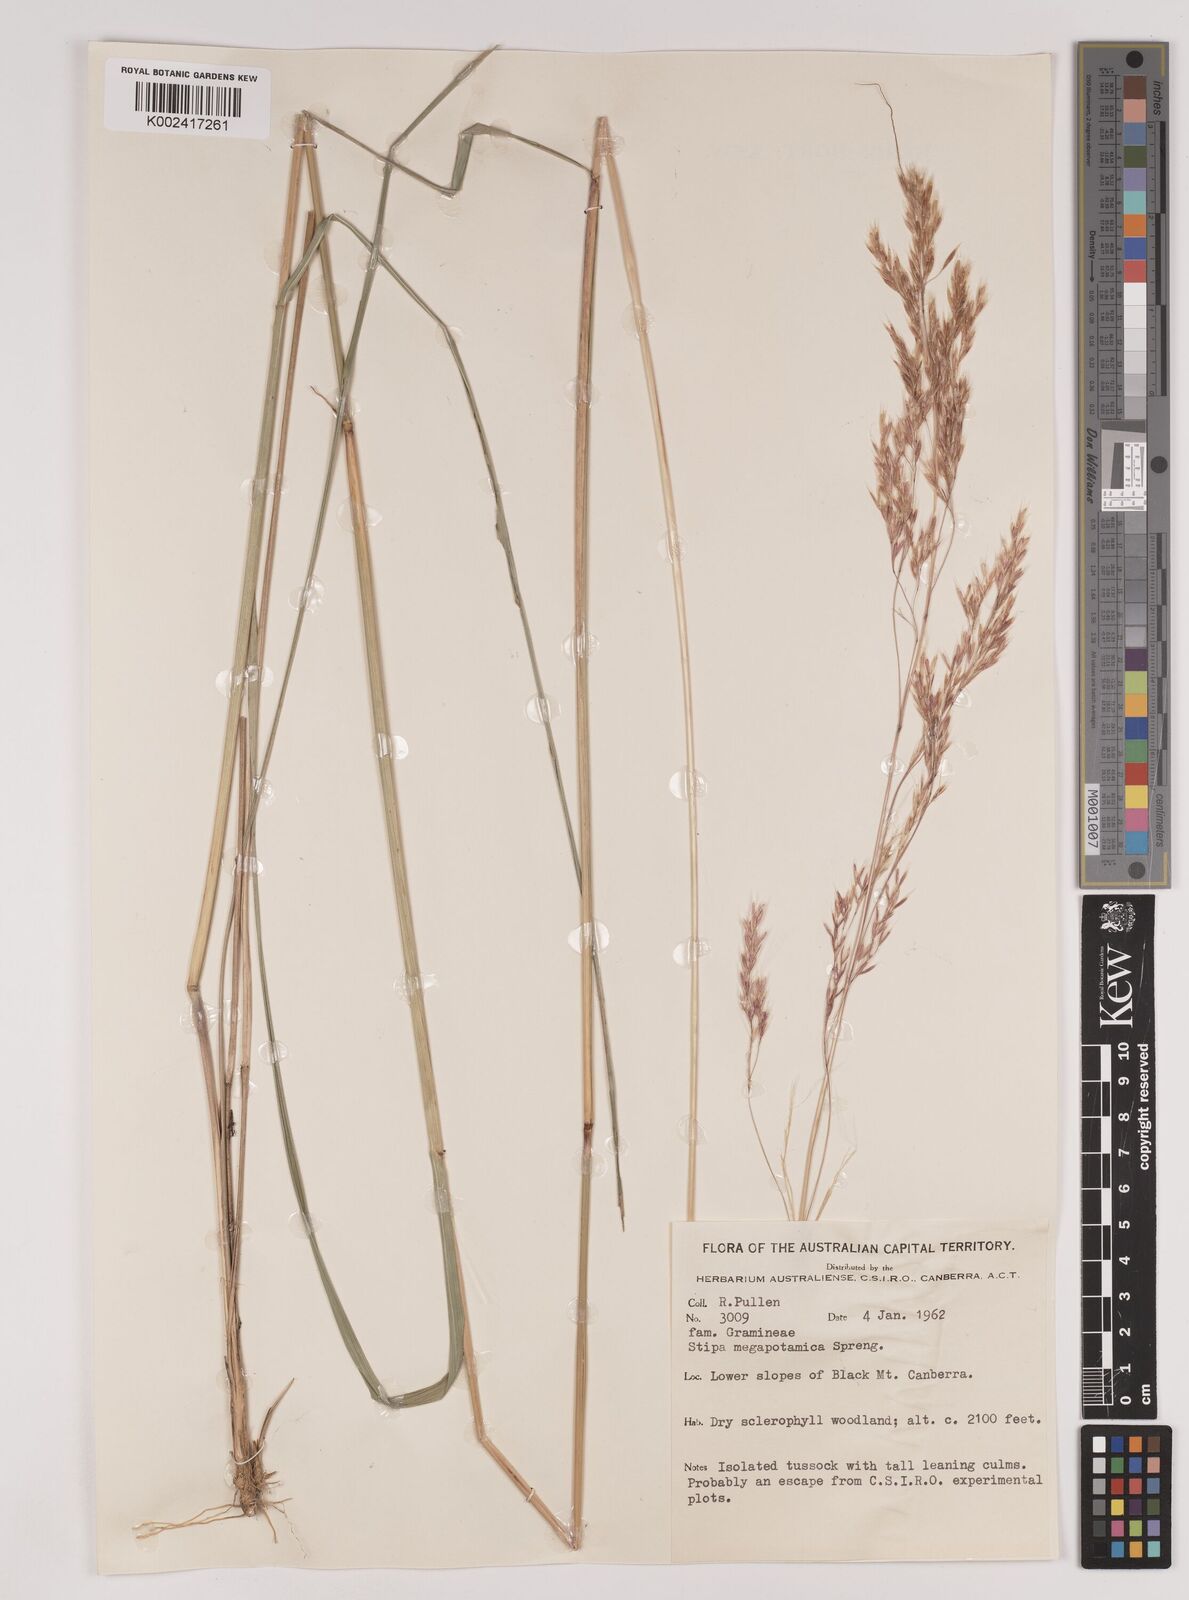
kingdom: Plantae
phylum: Tracheophyta
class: Liliopsida
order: Poales
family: Poaceae
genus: Jarava
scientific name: Jarava filifolia
